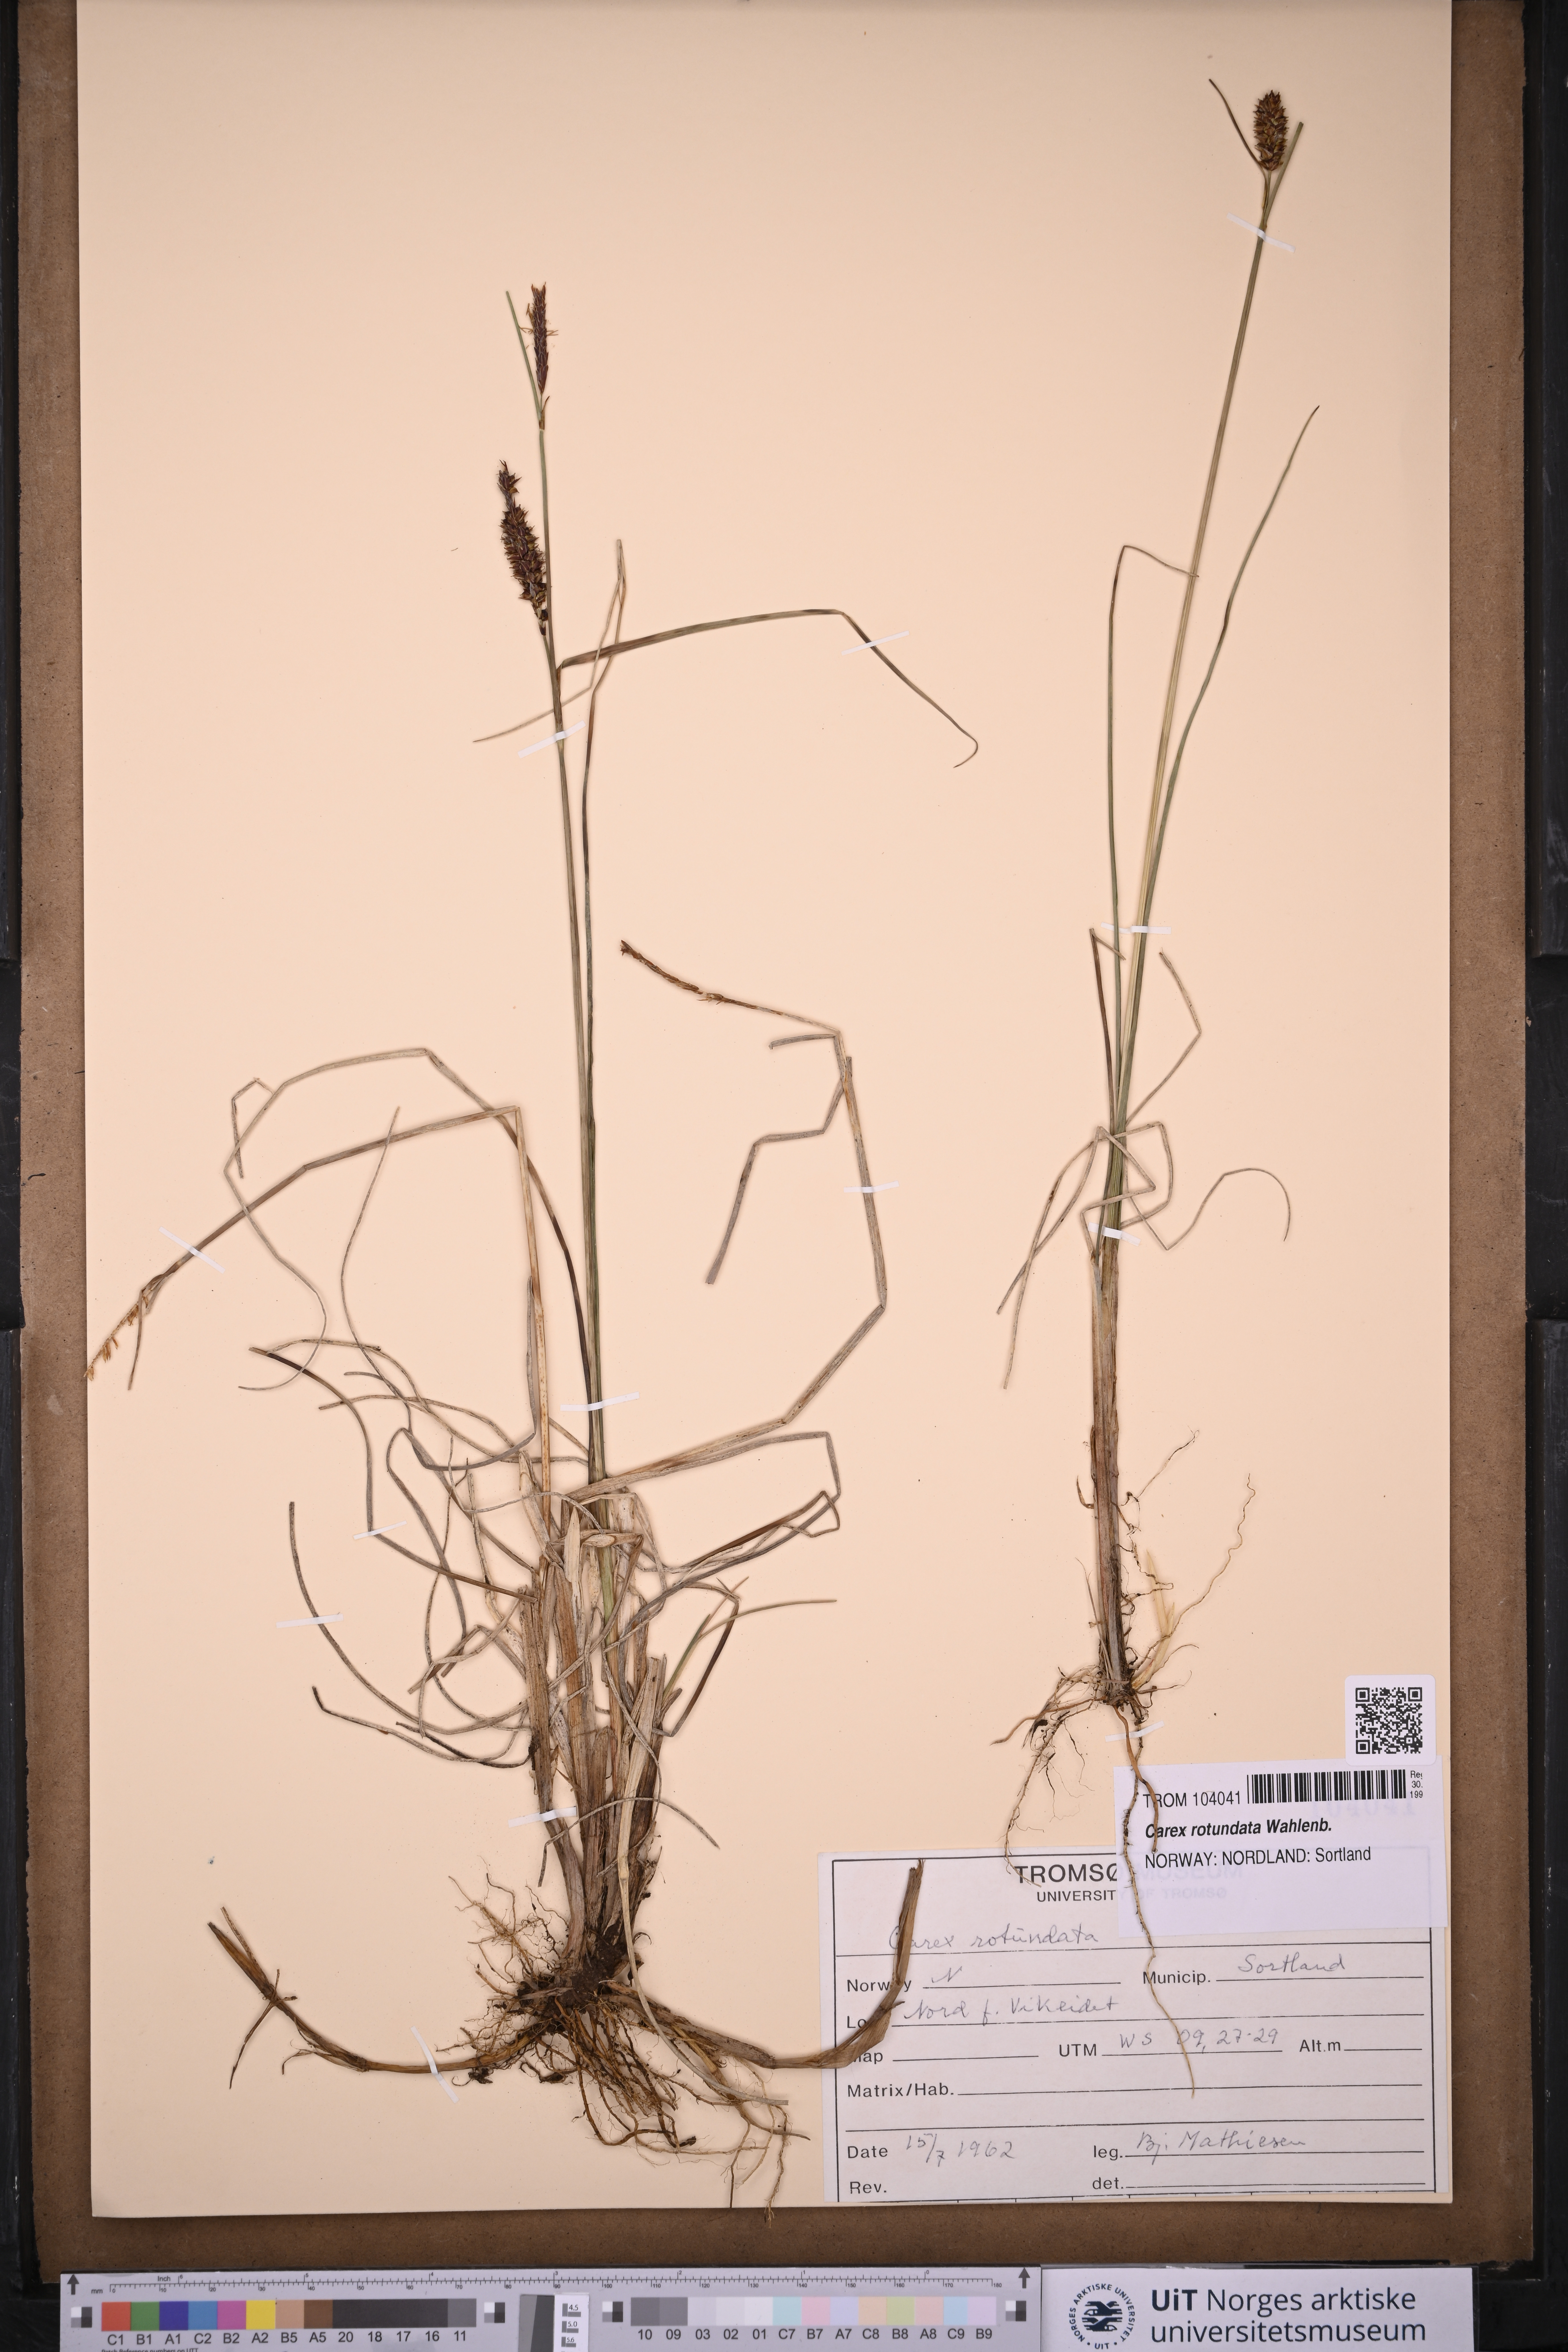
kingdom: Plantae
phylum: Tracheophyta
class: Liliopsida
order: Poales
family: Cyperaceae
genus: Carex
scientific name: Carex rotundata
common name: Round-fruited sedge
